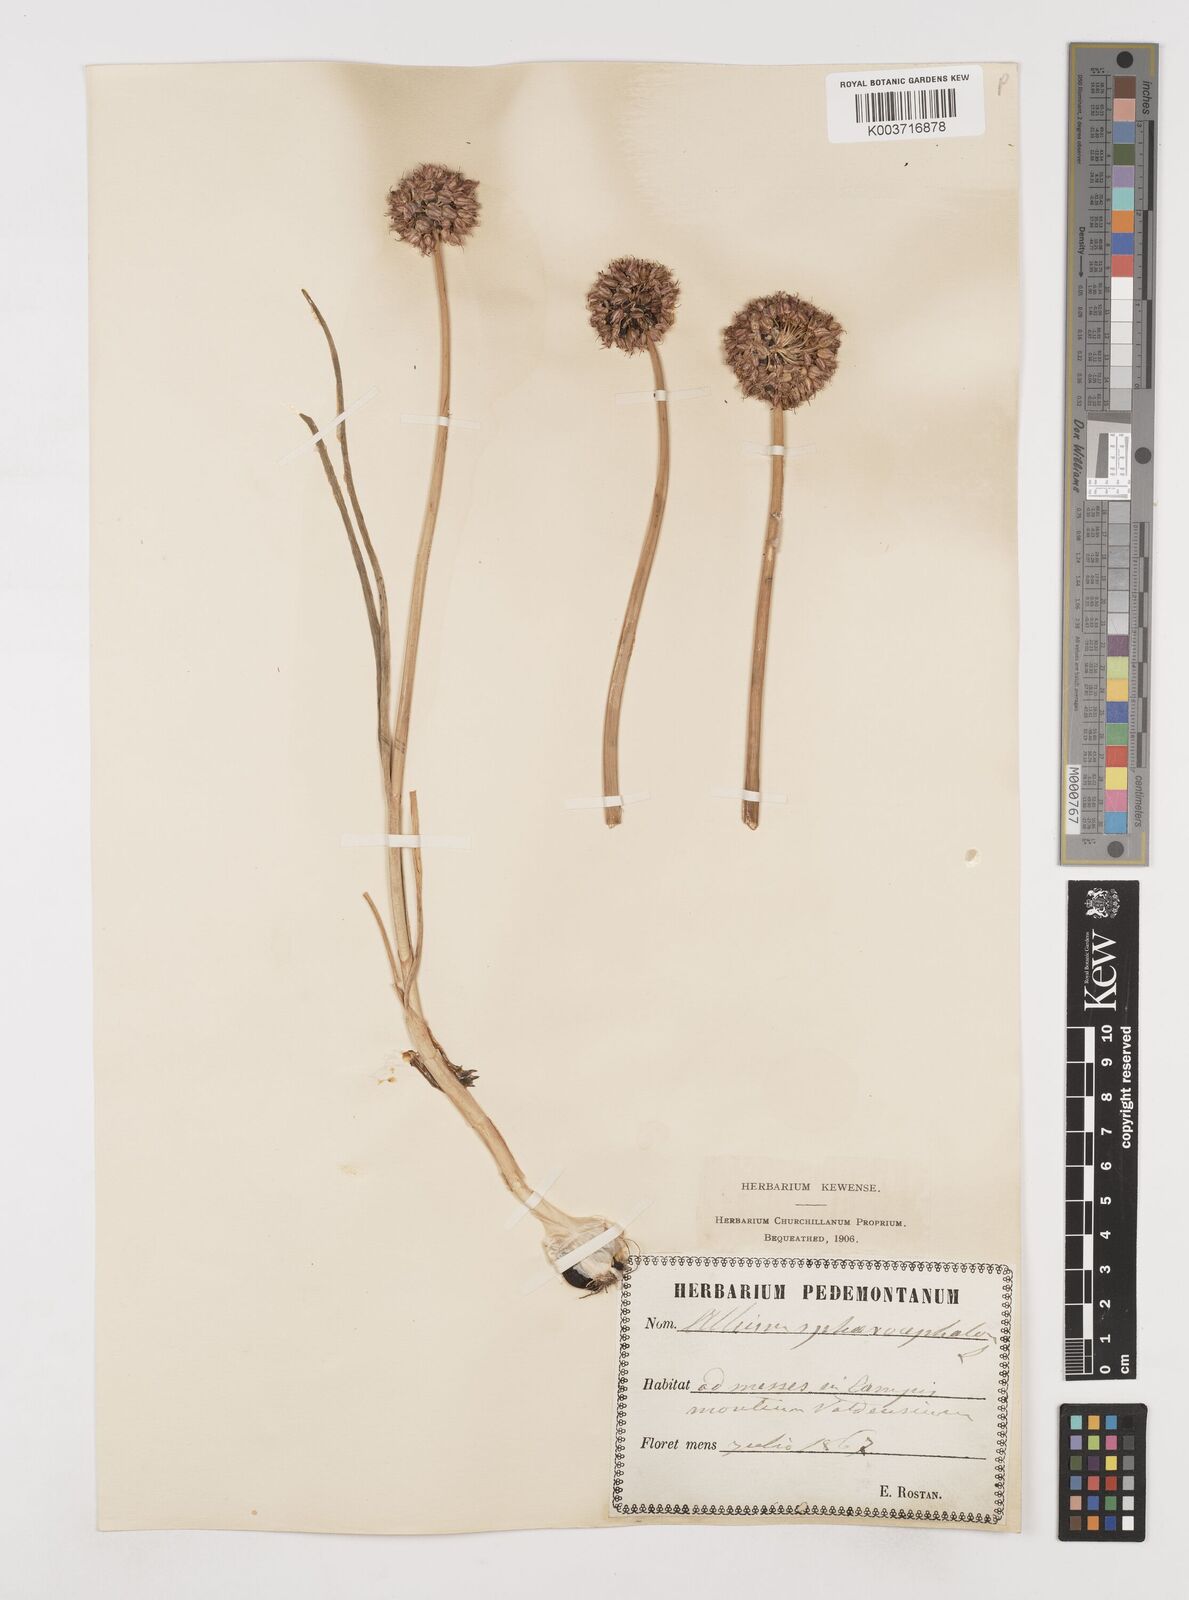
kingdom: Plantae
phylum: Tracheophyta
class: Liliopsida
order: Asparagales
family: Amaryllidaceae
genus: Allium
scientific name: Allium sphaerocephalon
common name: Round-headed leek
